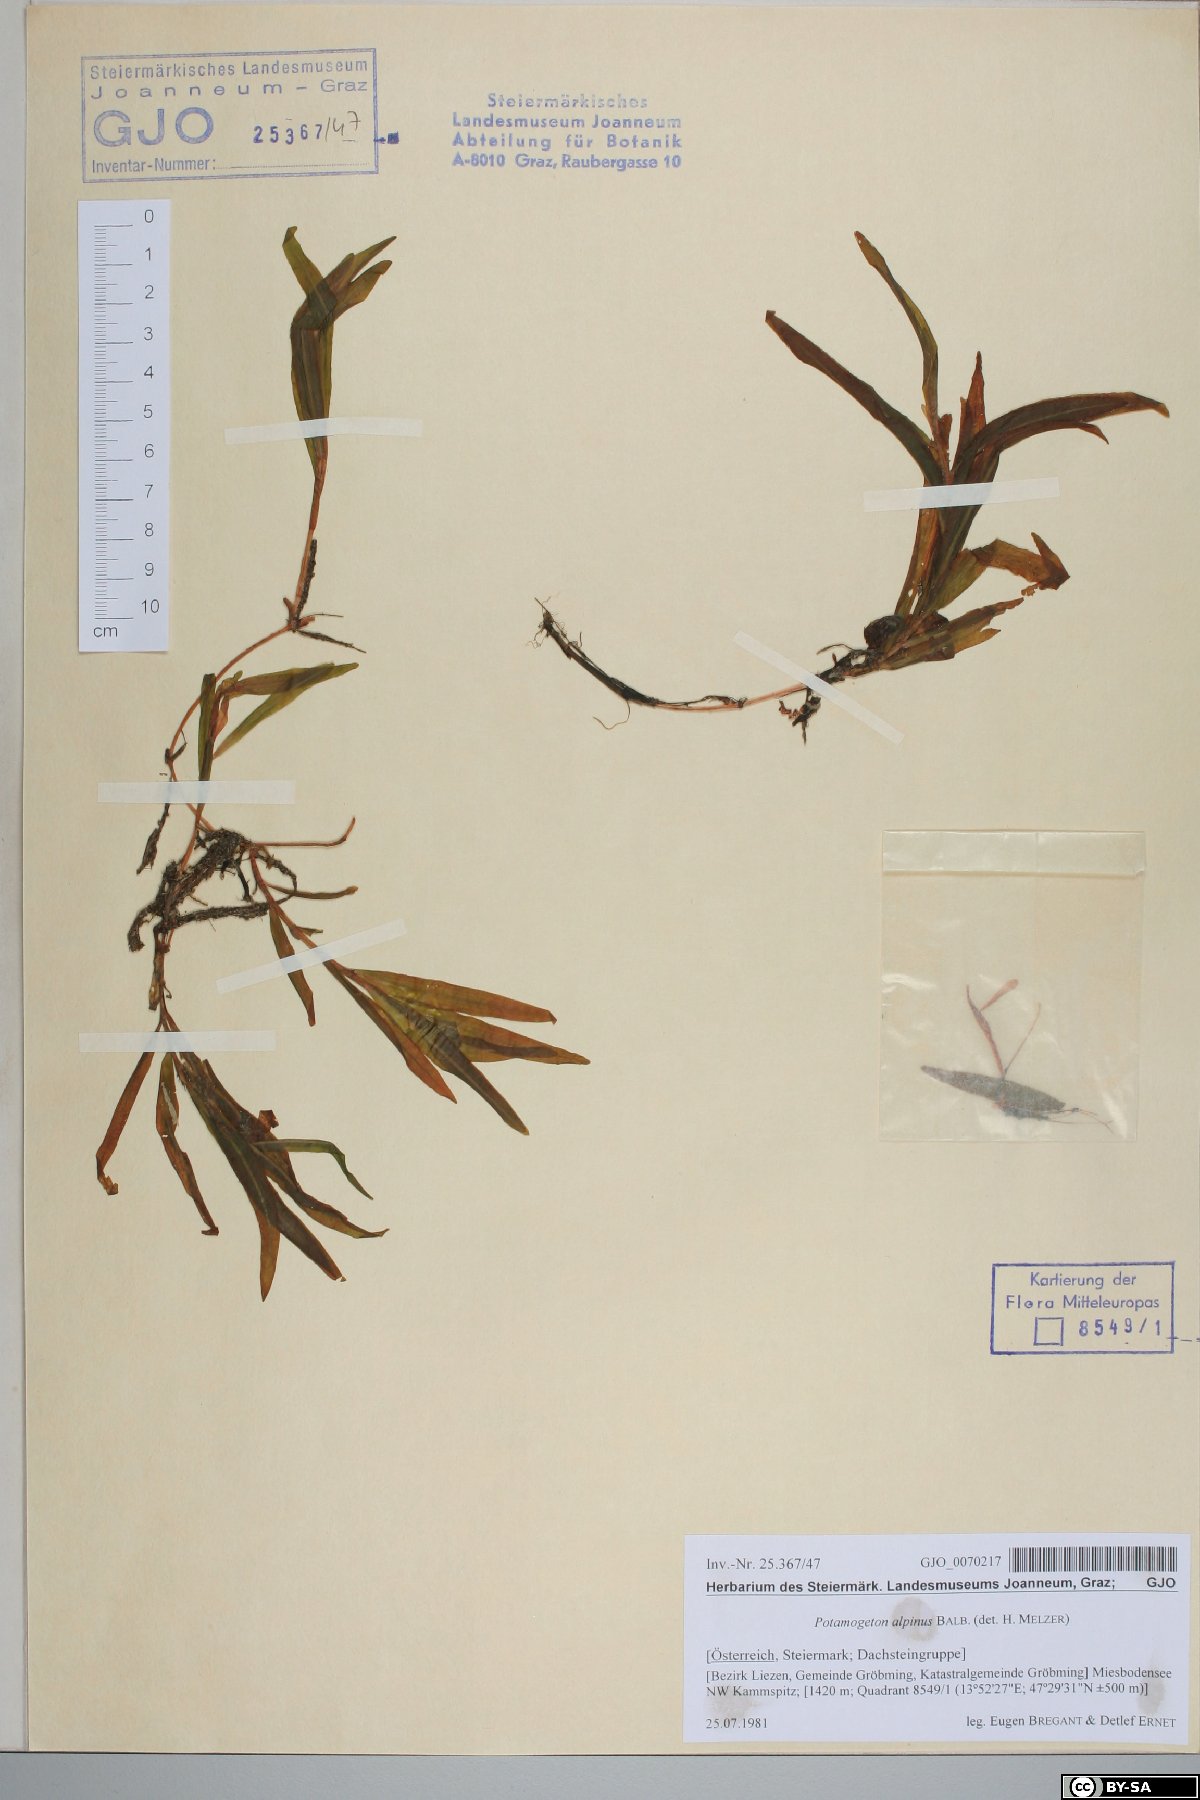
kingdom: Plantae
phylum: Tracheophyta
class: Liliopsida
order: Alismatales
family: Potamogetonaceae
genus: Potamogeton
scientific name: Potamogeton alpinus
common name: Red pondweed
